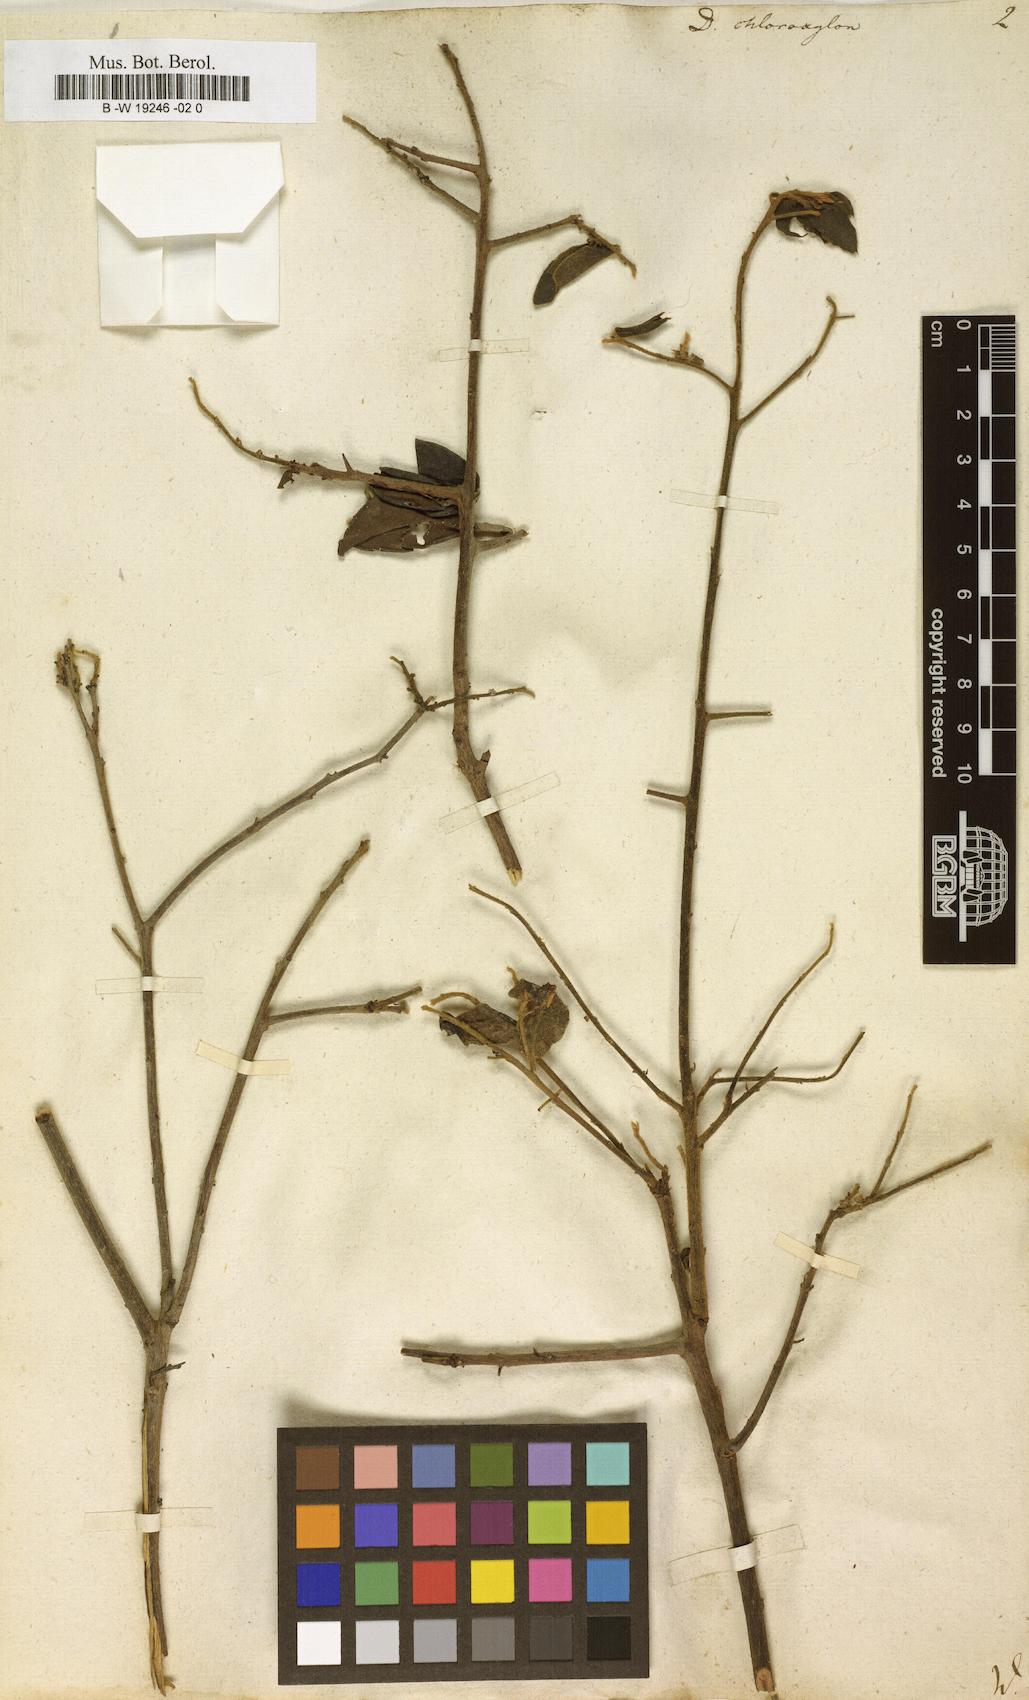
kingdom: Plantae
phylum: Tracheophyta
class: Magnoliopsida
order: Ericales
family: Ebenaceae
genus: Diospyros
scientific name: Diospyros chloroxylon
